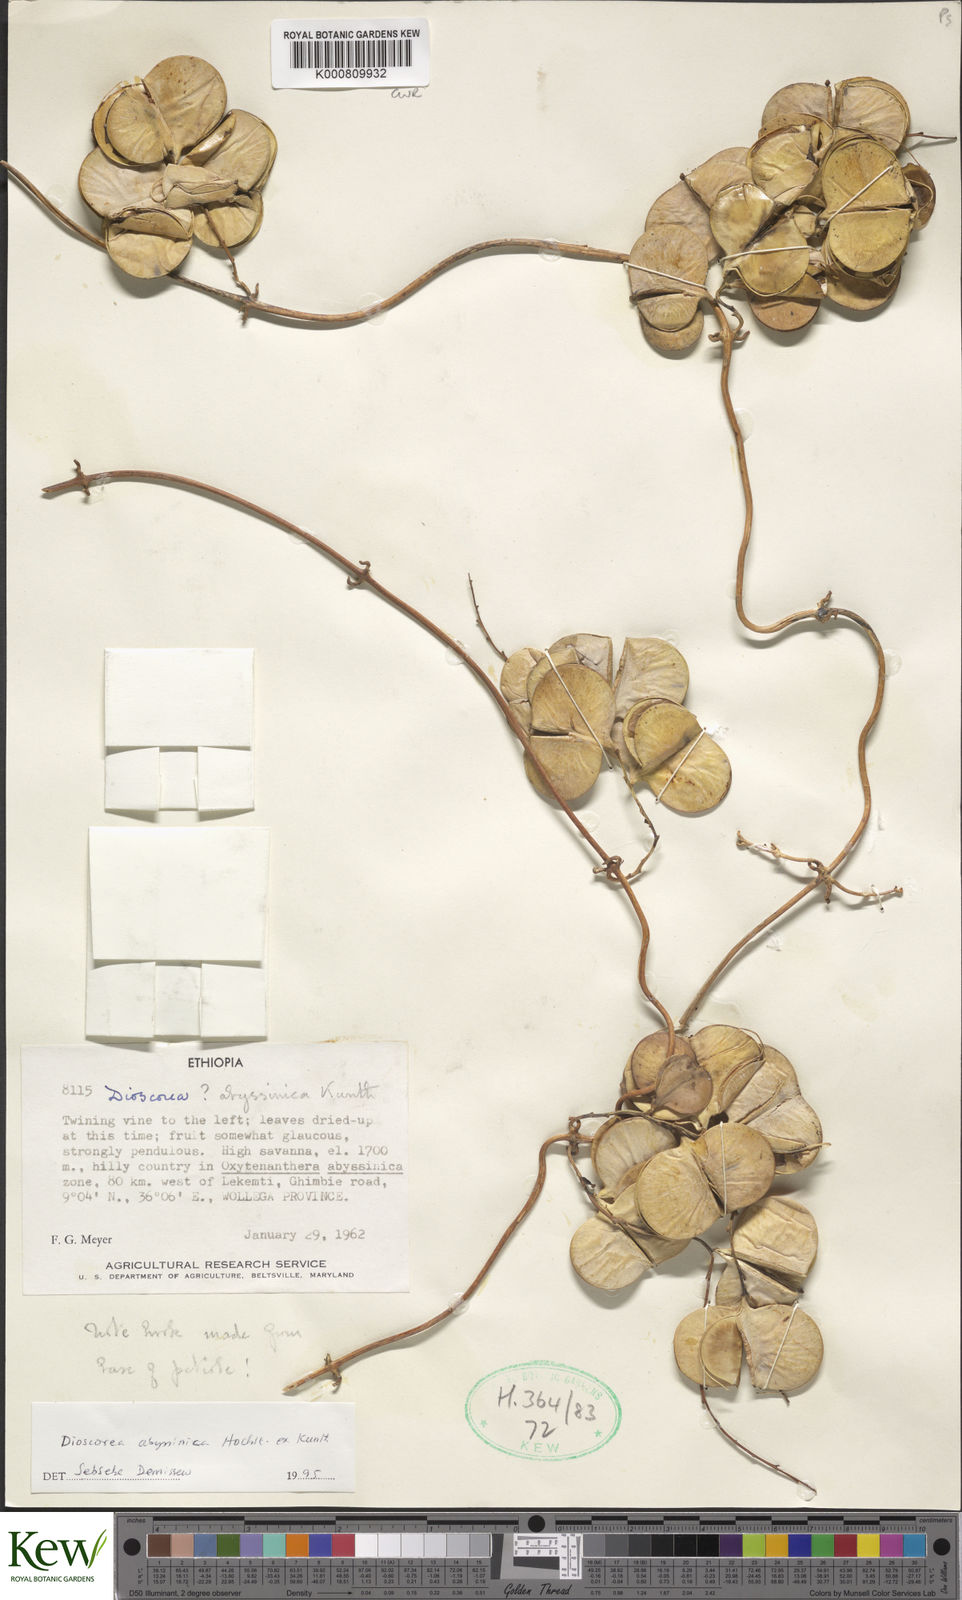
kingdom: Plantae
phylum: Tracheophyta
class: Liliopsida
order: Dioscoreales
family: Dioscoreaceae
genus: Dioscorea
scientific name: Dioscorea abyssinica
